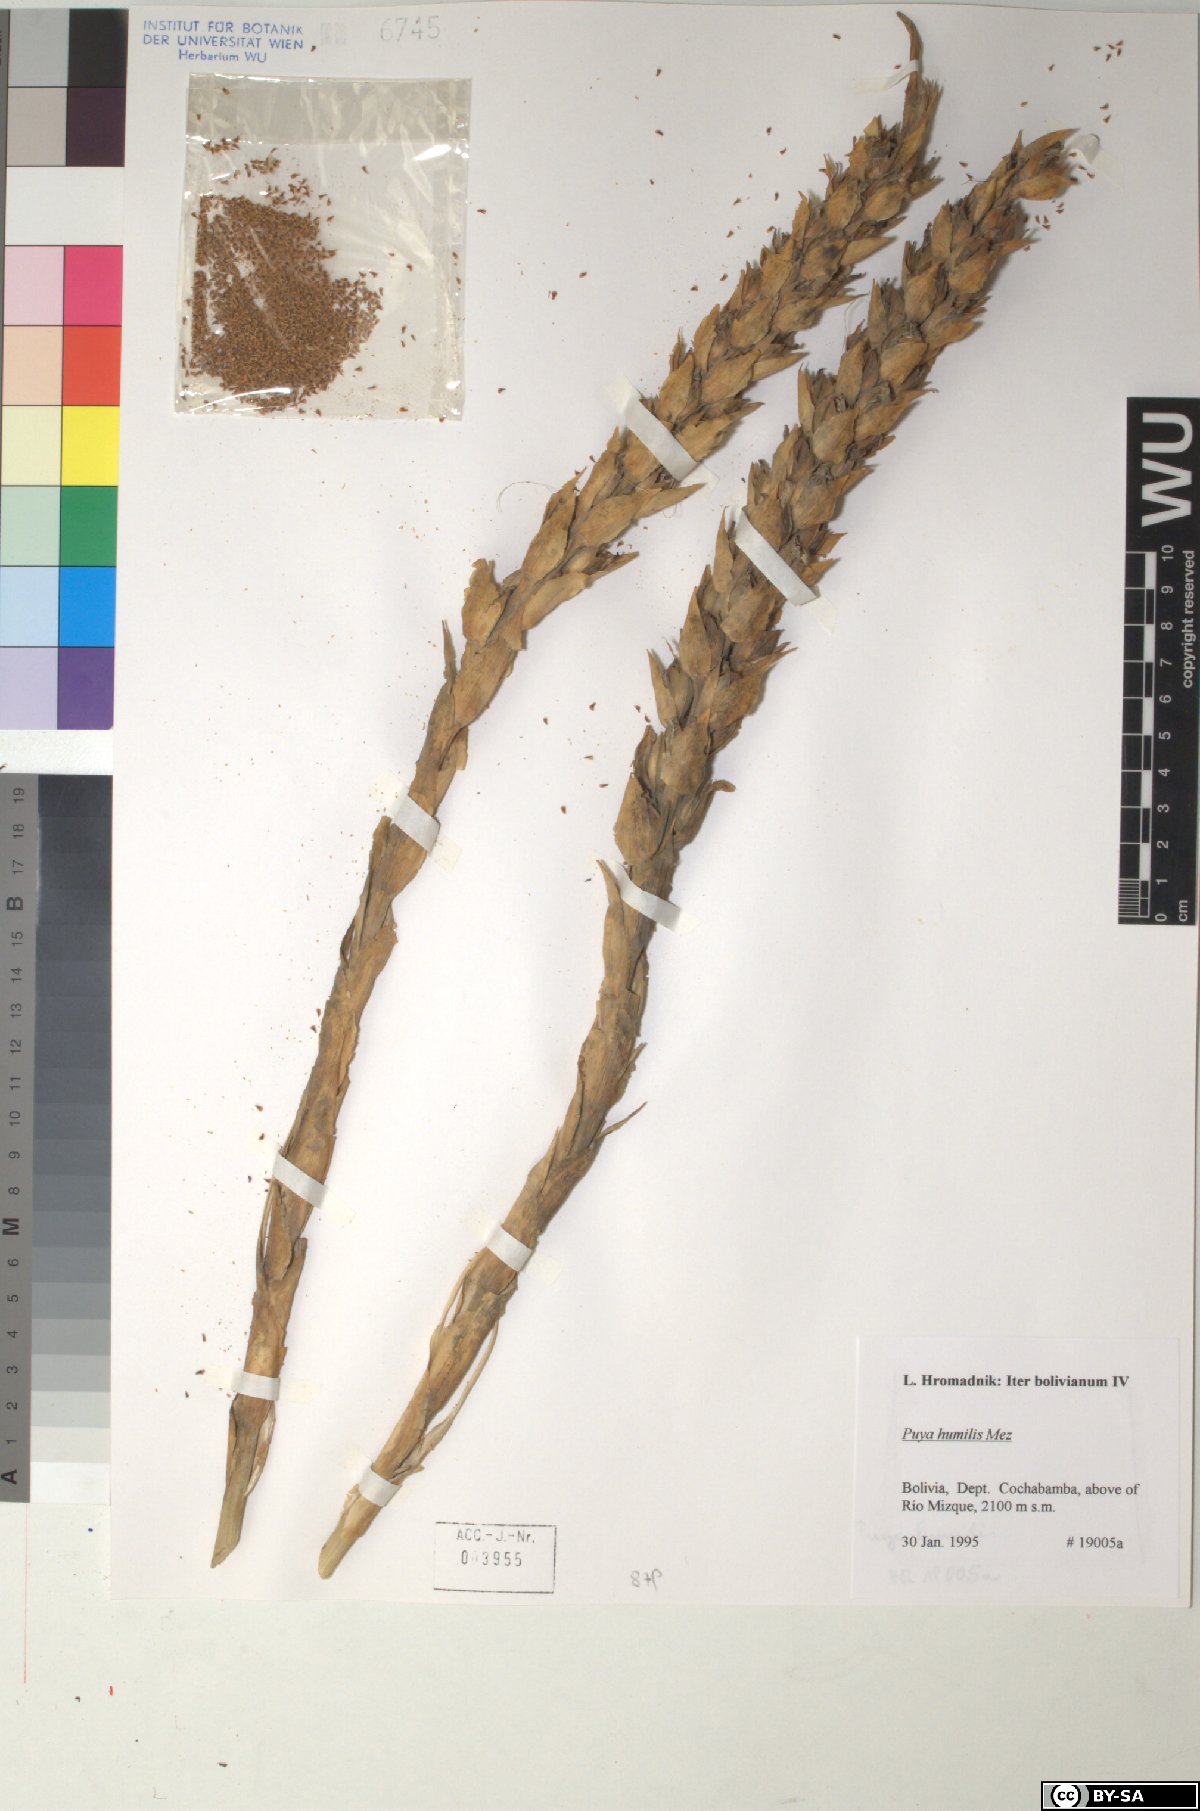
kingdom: Plantae
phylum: Tracheophyta
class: Liliopsida
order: Poales
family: Bromeliaceae
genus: Puya
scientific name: Puya humilis
